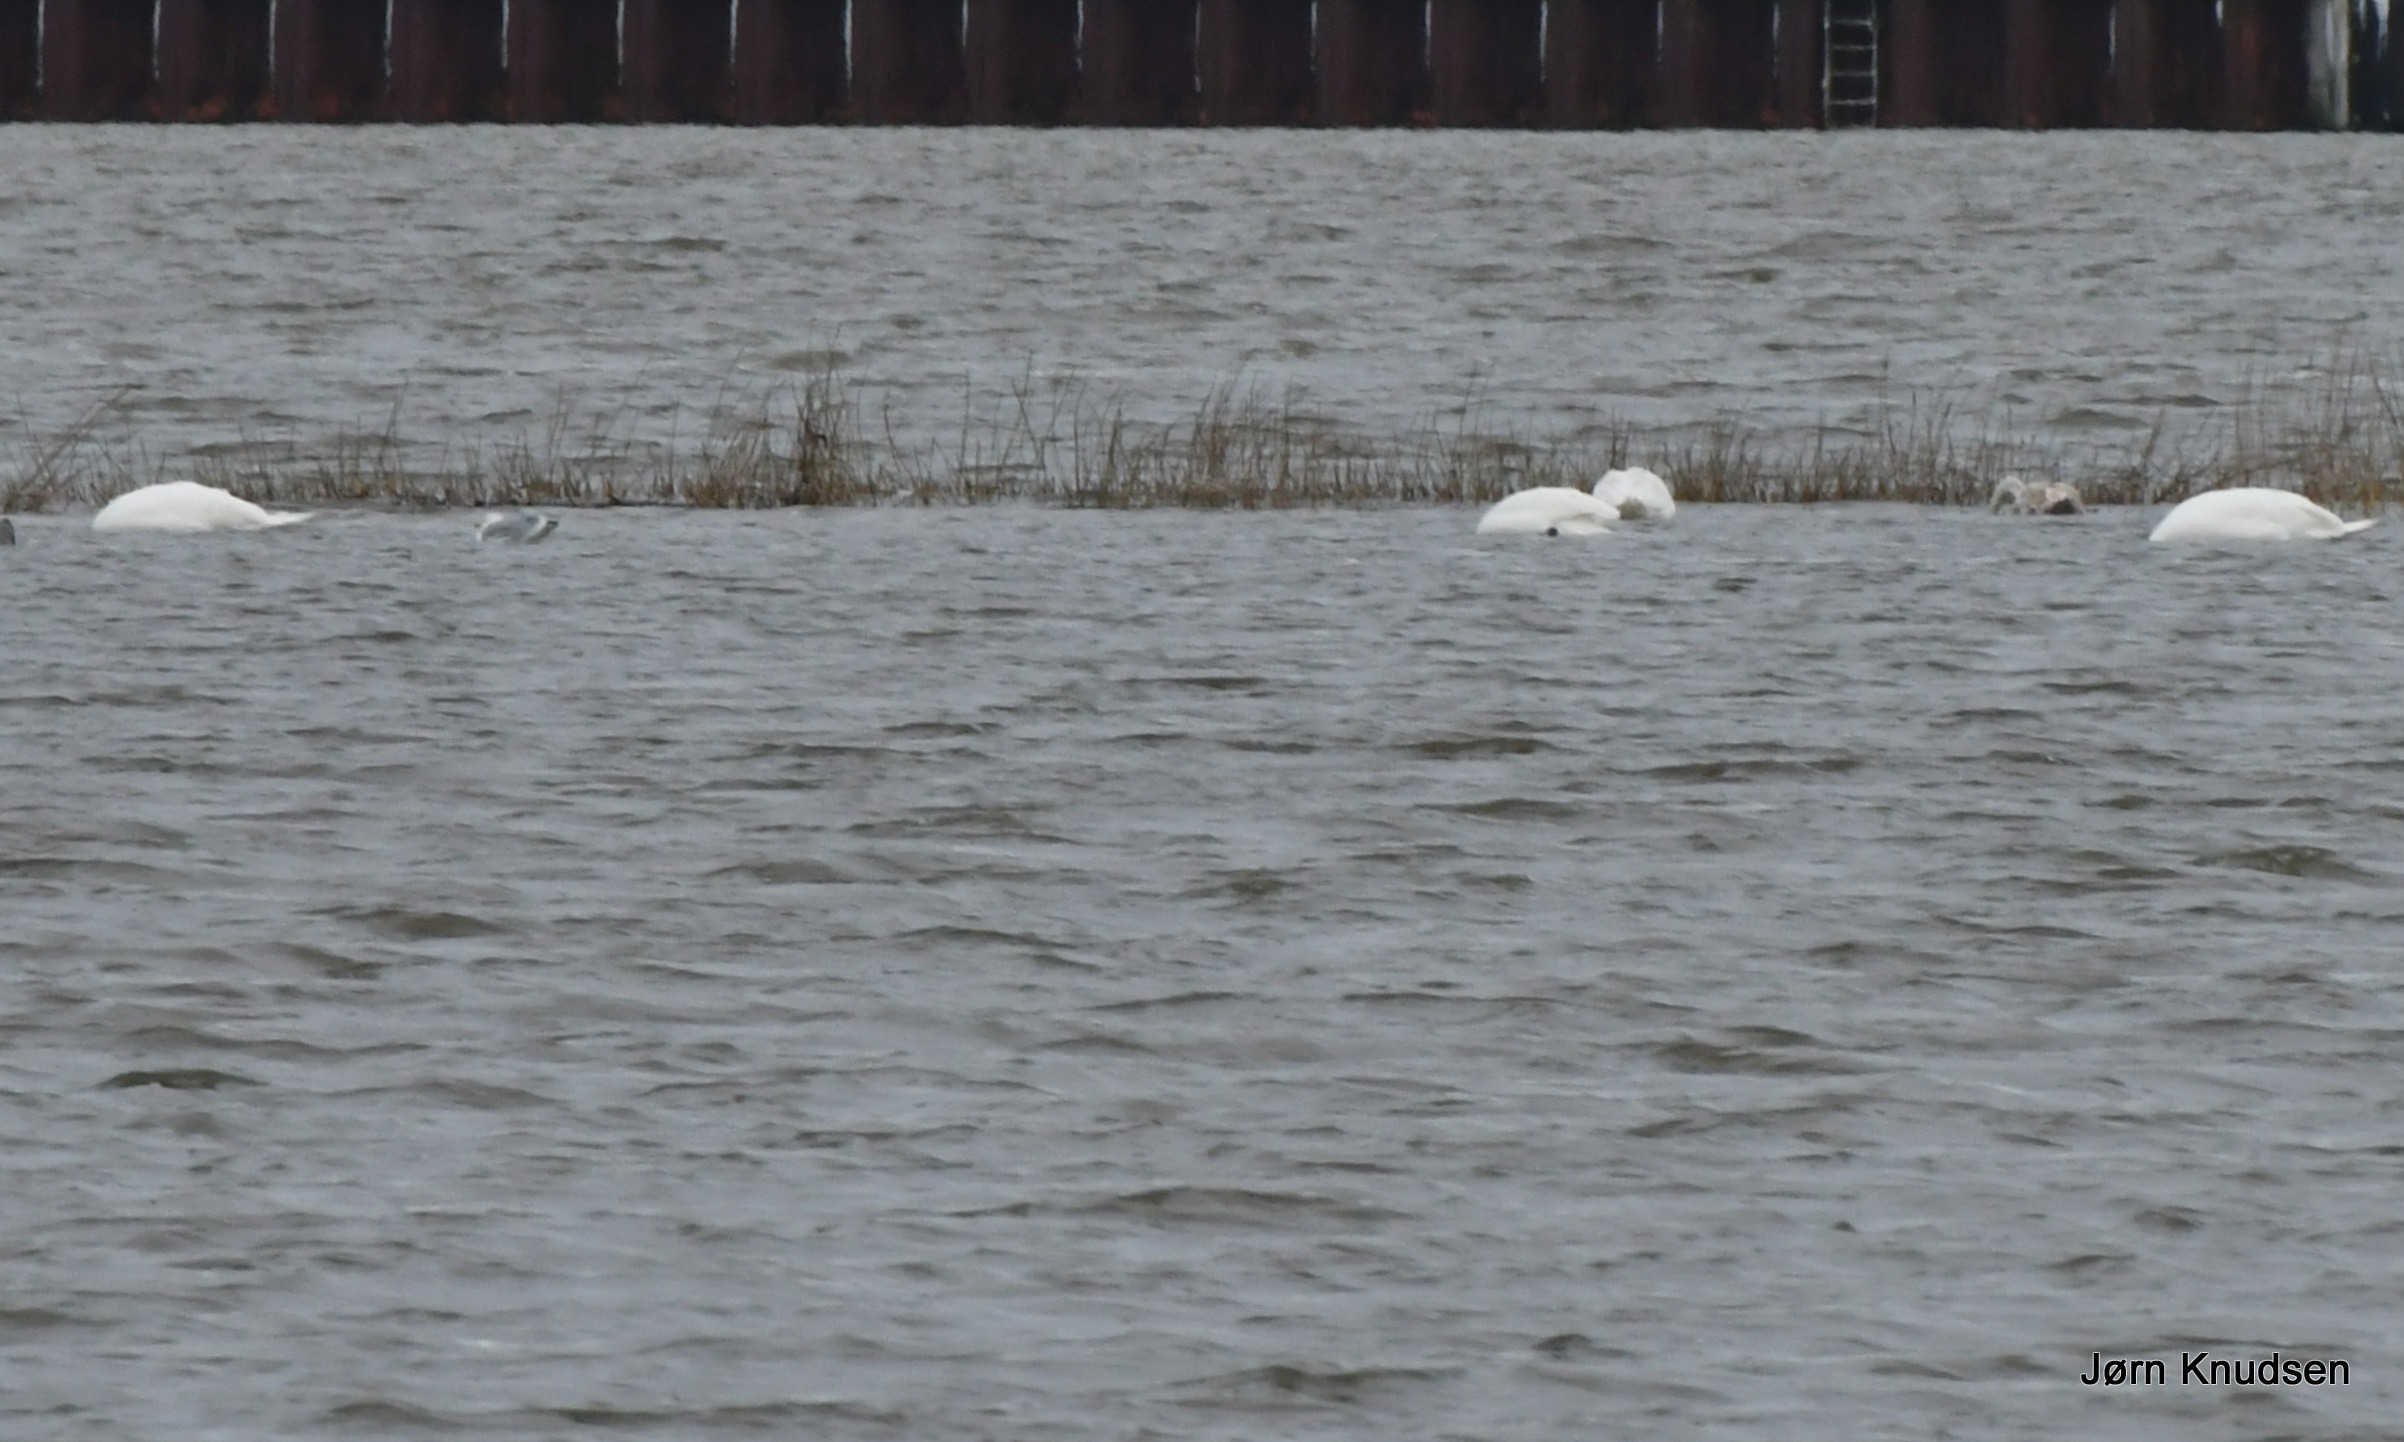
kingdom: Animalia
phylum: Chordata
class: Aves
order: Anseriformes
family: Anatidae
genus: Cygnus
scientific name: Cygnus olor
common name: Knopsvane
